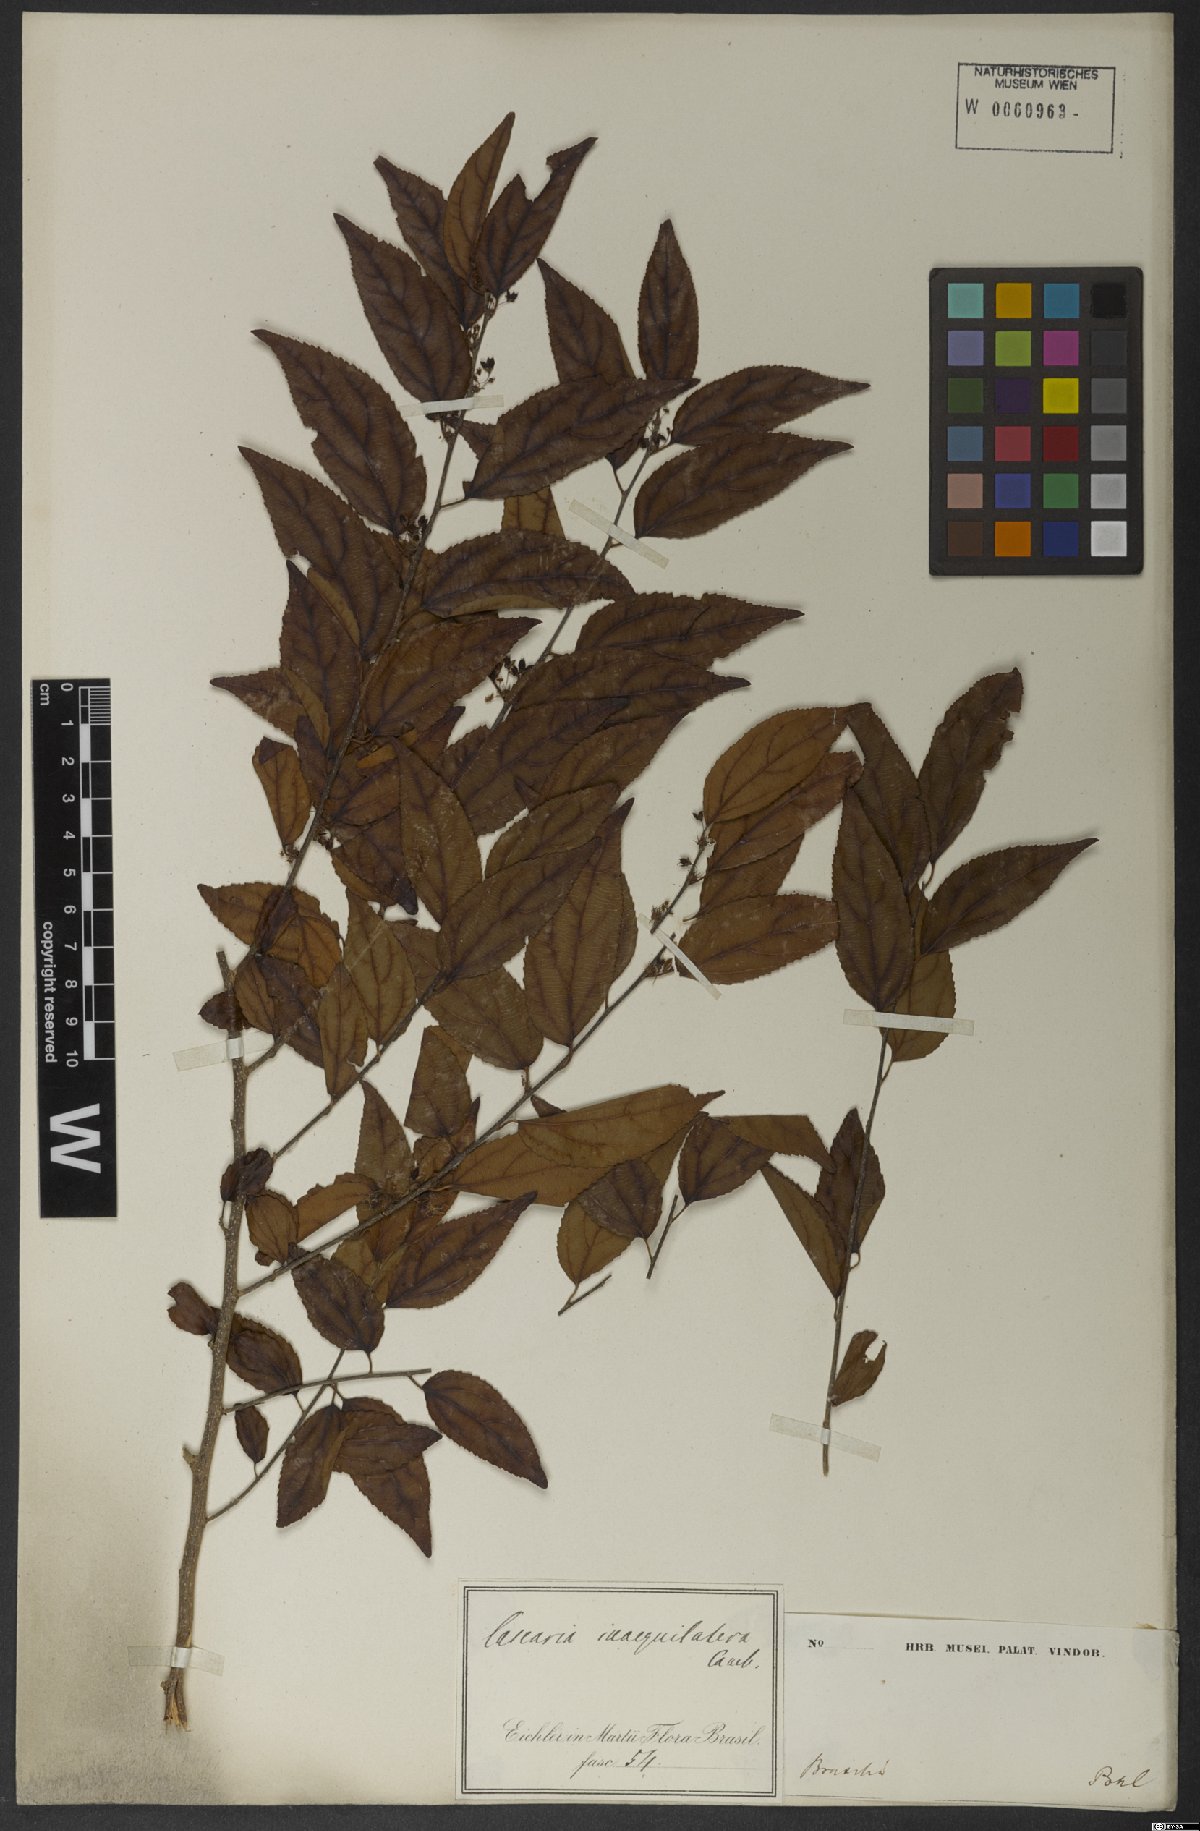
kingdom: Plantae
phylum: Tracheophyta
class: Magnoliopsida
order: Malpighiales
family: Salicaceae
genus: Casearia
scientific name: Casearia obliqua
